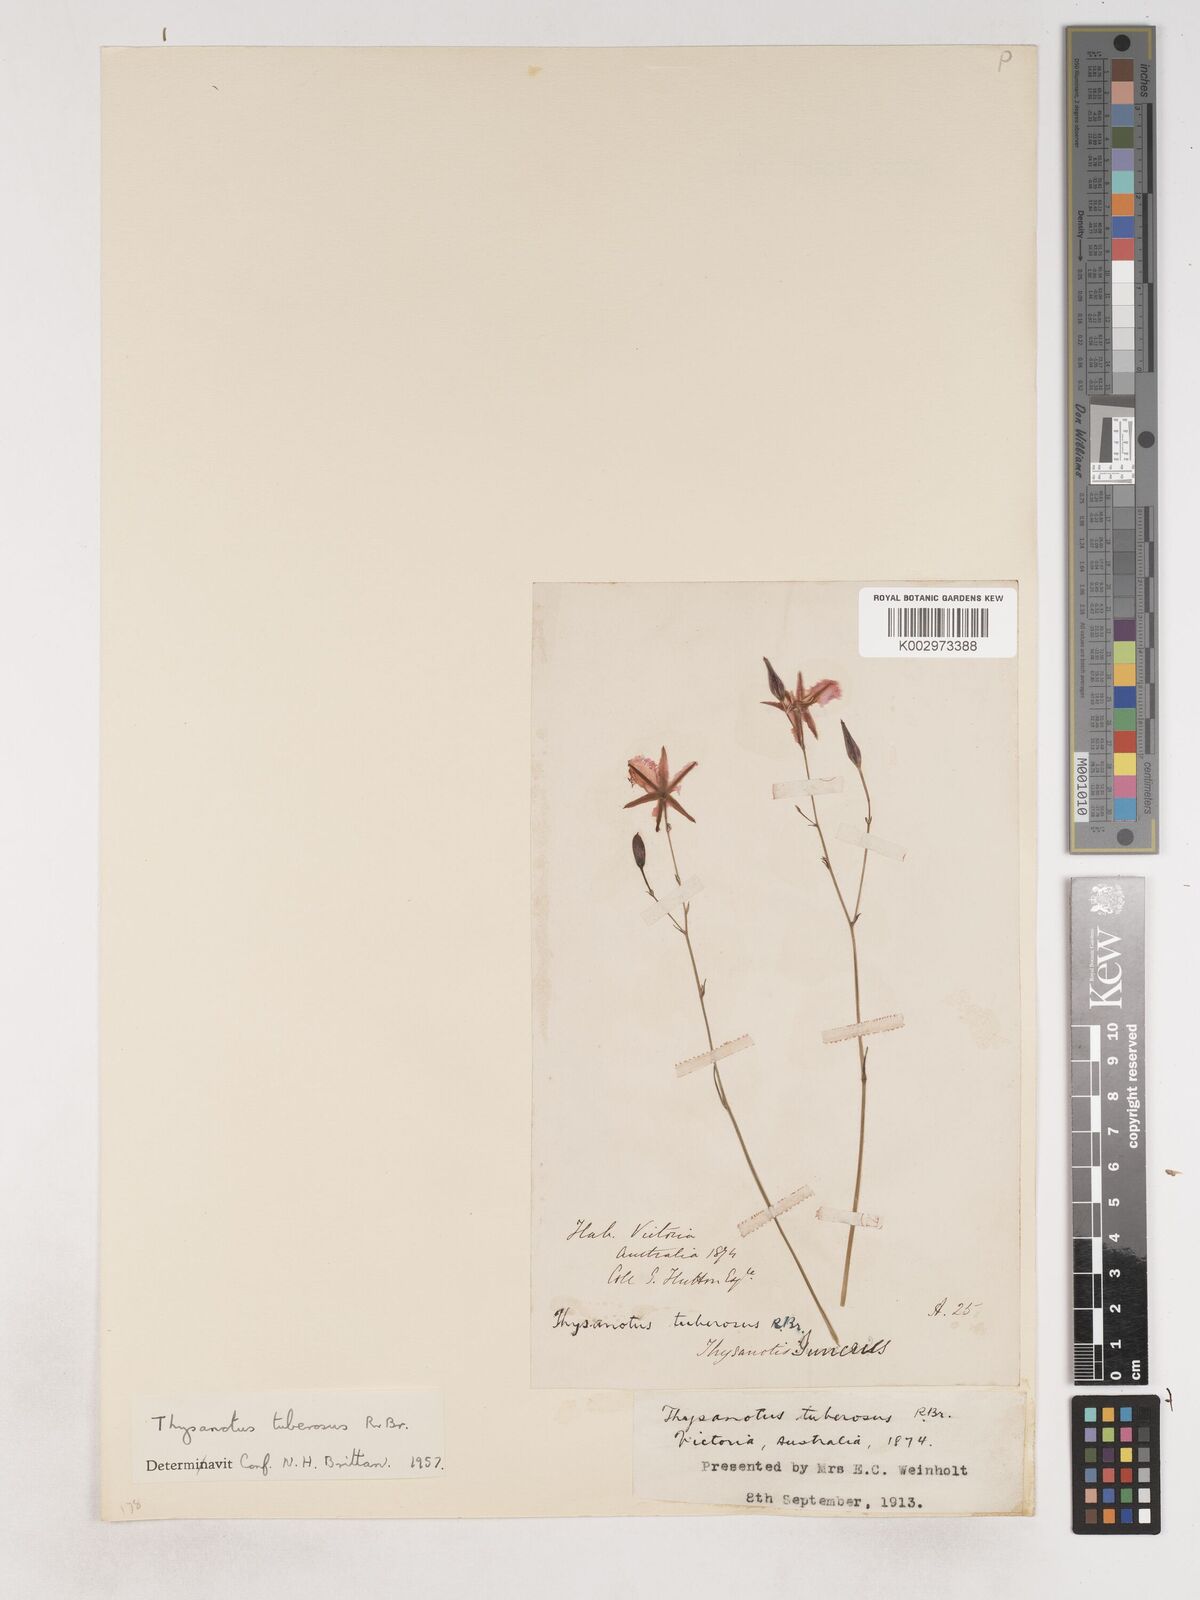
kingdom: Plantae
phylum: Tracheophyta
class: Liliopsida
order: Asparagales
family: Asparagaceae
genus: Thysanotus
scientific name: Thysanotus tuberosus
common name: Common fringed-lily
